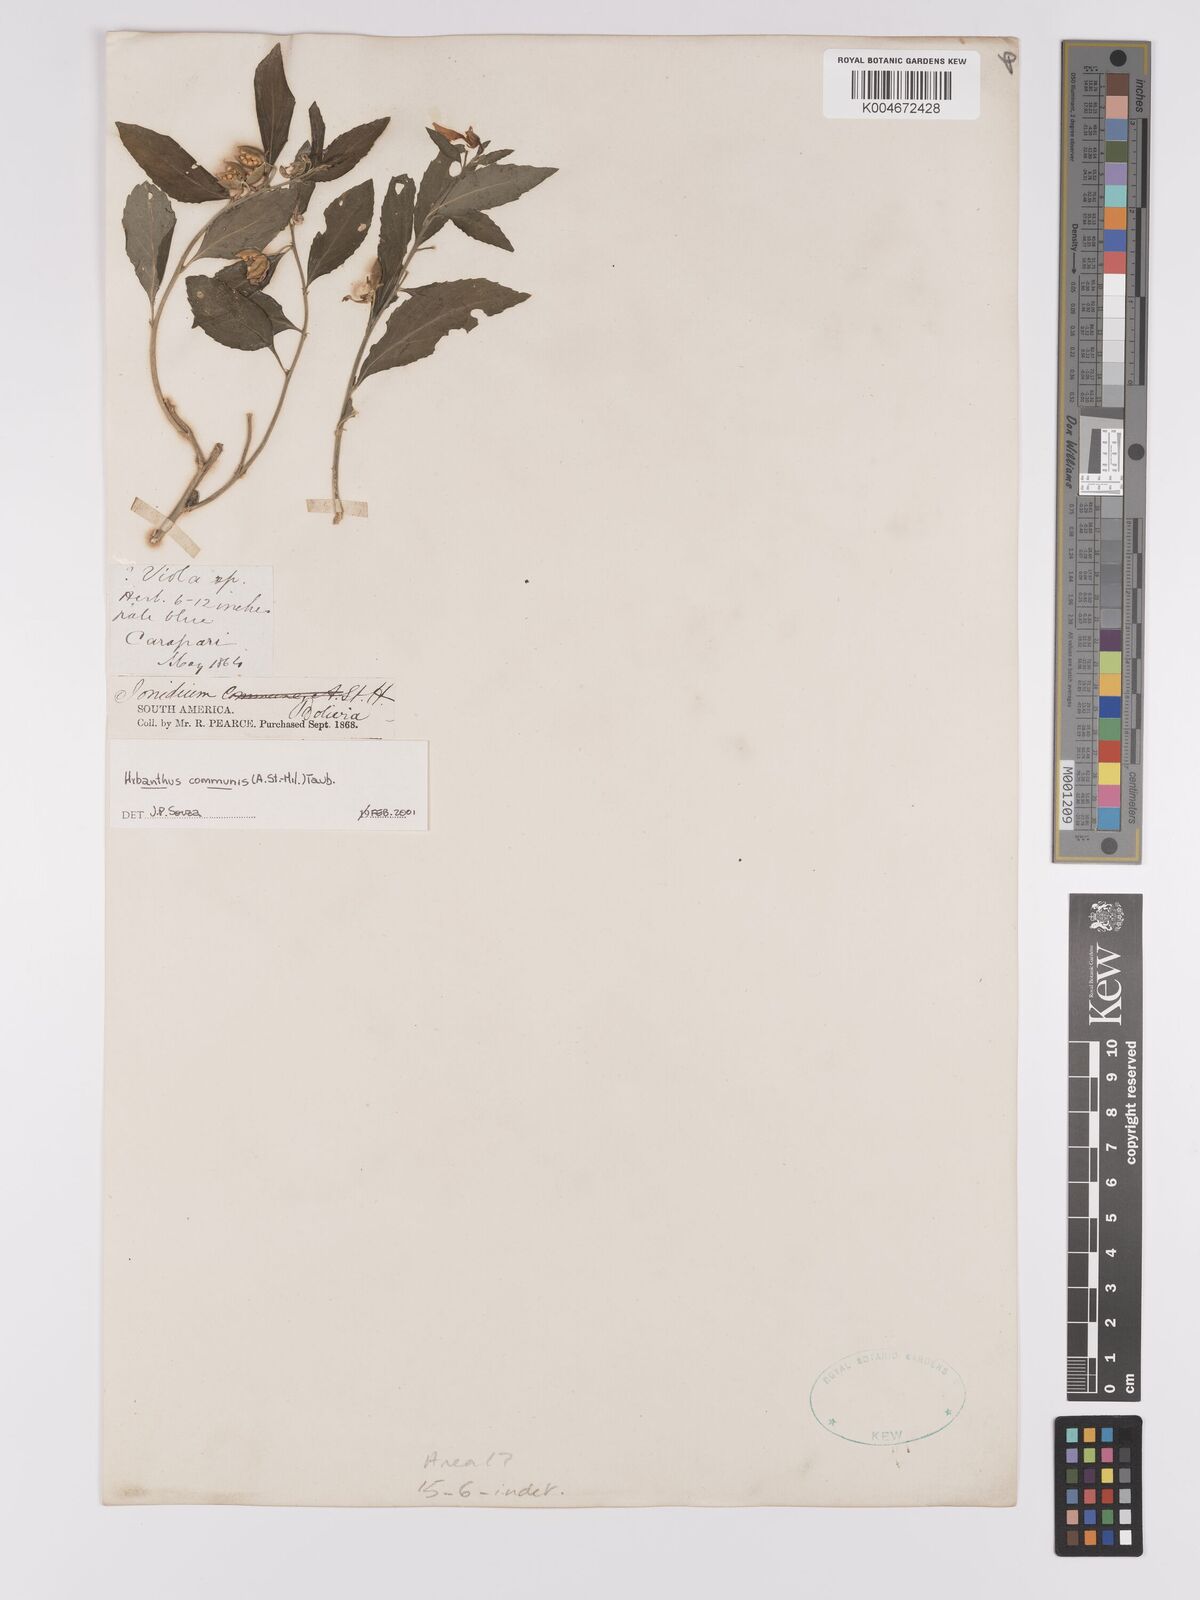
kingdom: Plantae
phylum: Tracheophyta
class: Magnoliopsida
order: Malpighiales
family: Violaceae
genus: Pombalia
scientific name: Pombalia communis
